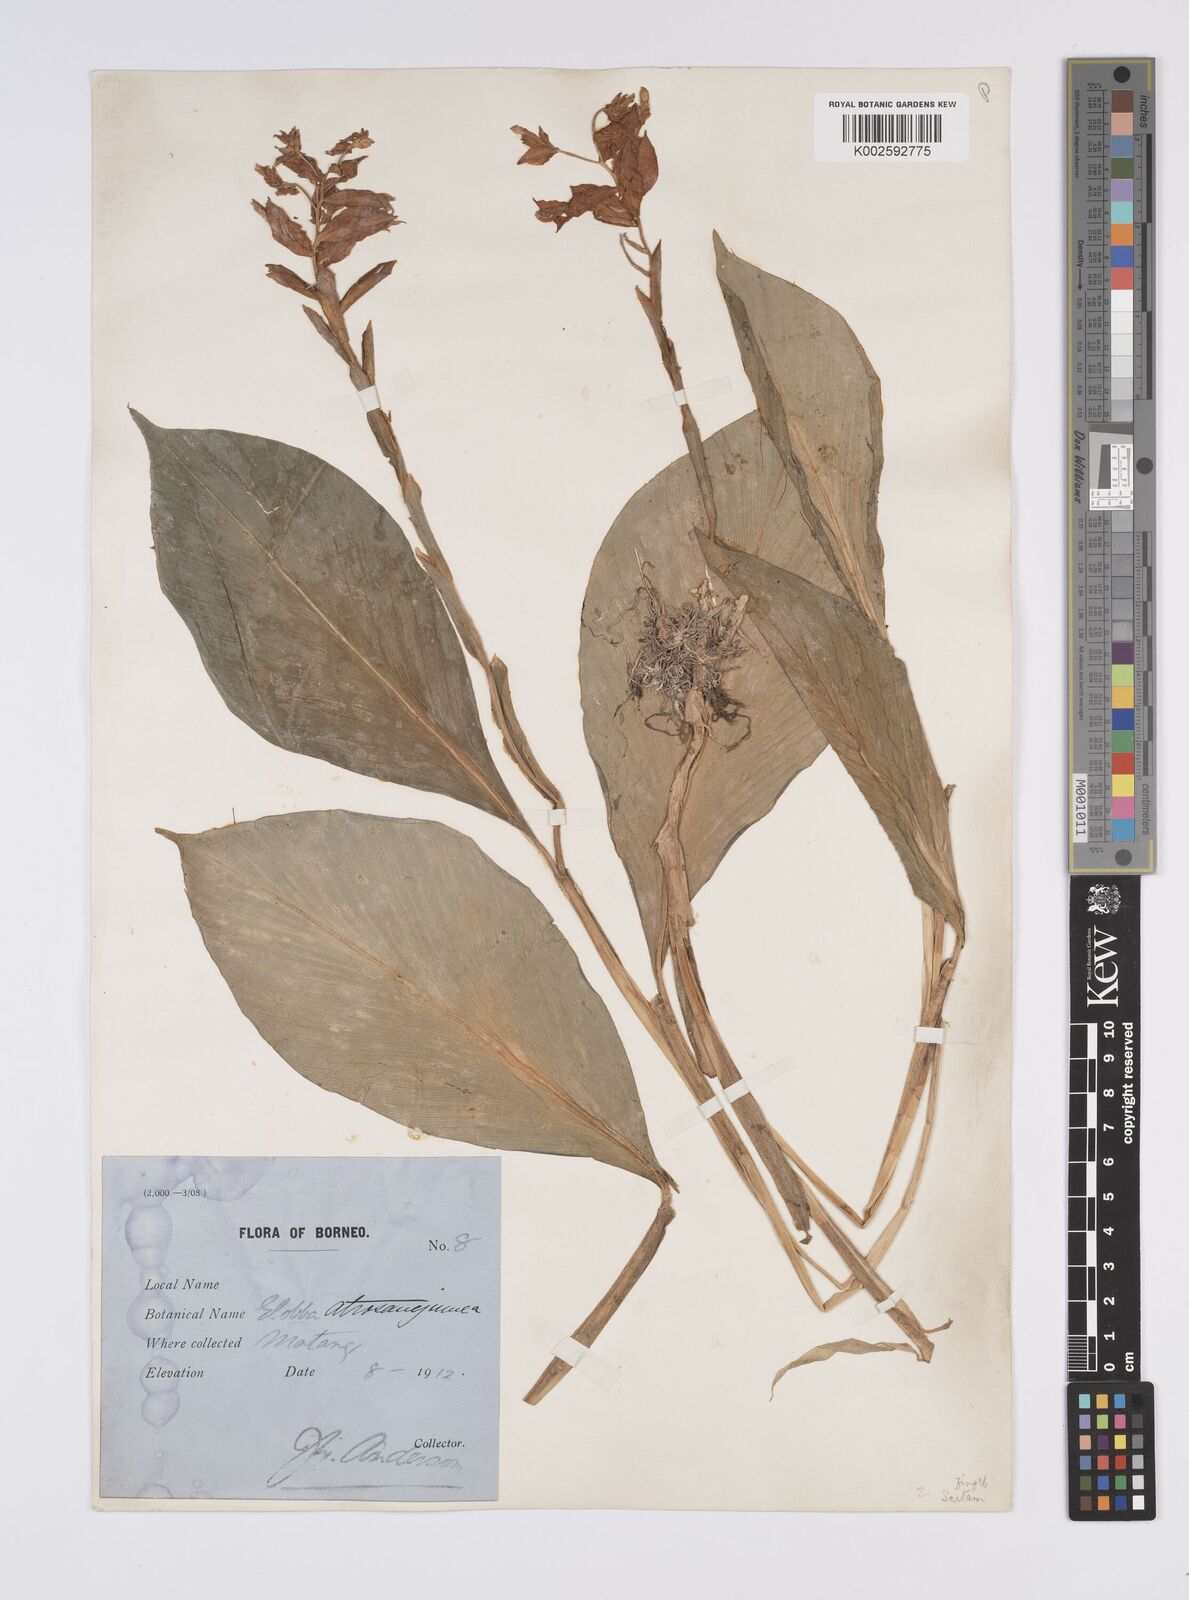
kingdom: Plantae
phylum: Tracheophyta
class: Liliopsida
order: Zingiberales
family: Zingiberaceae
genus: Globba
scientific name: Globba atrosanguinea
